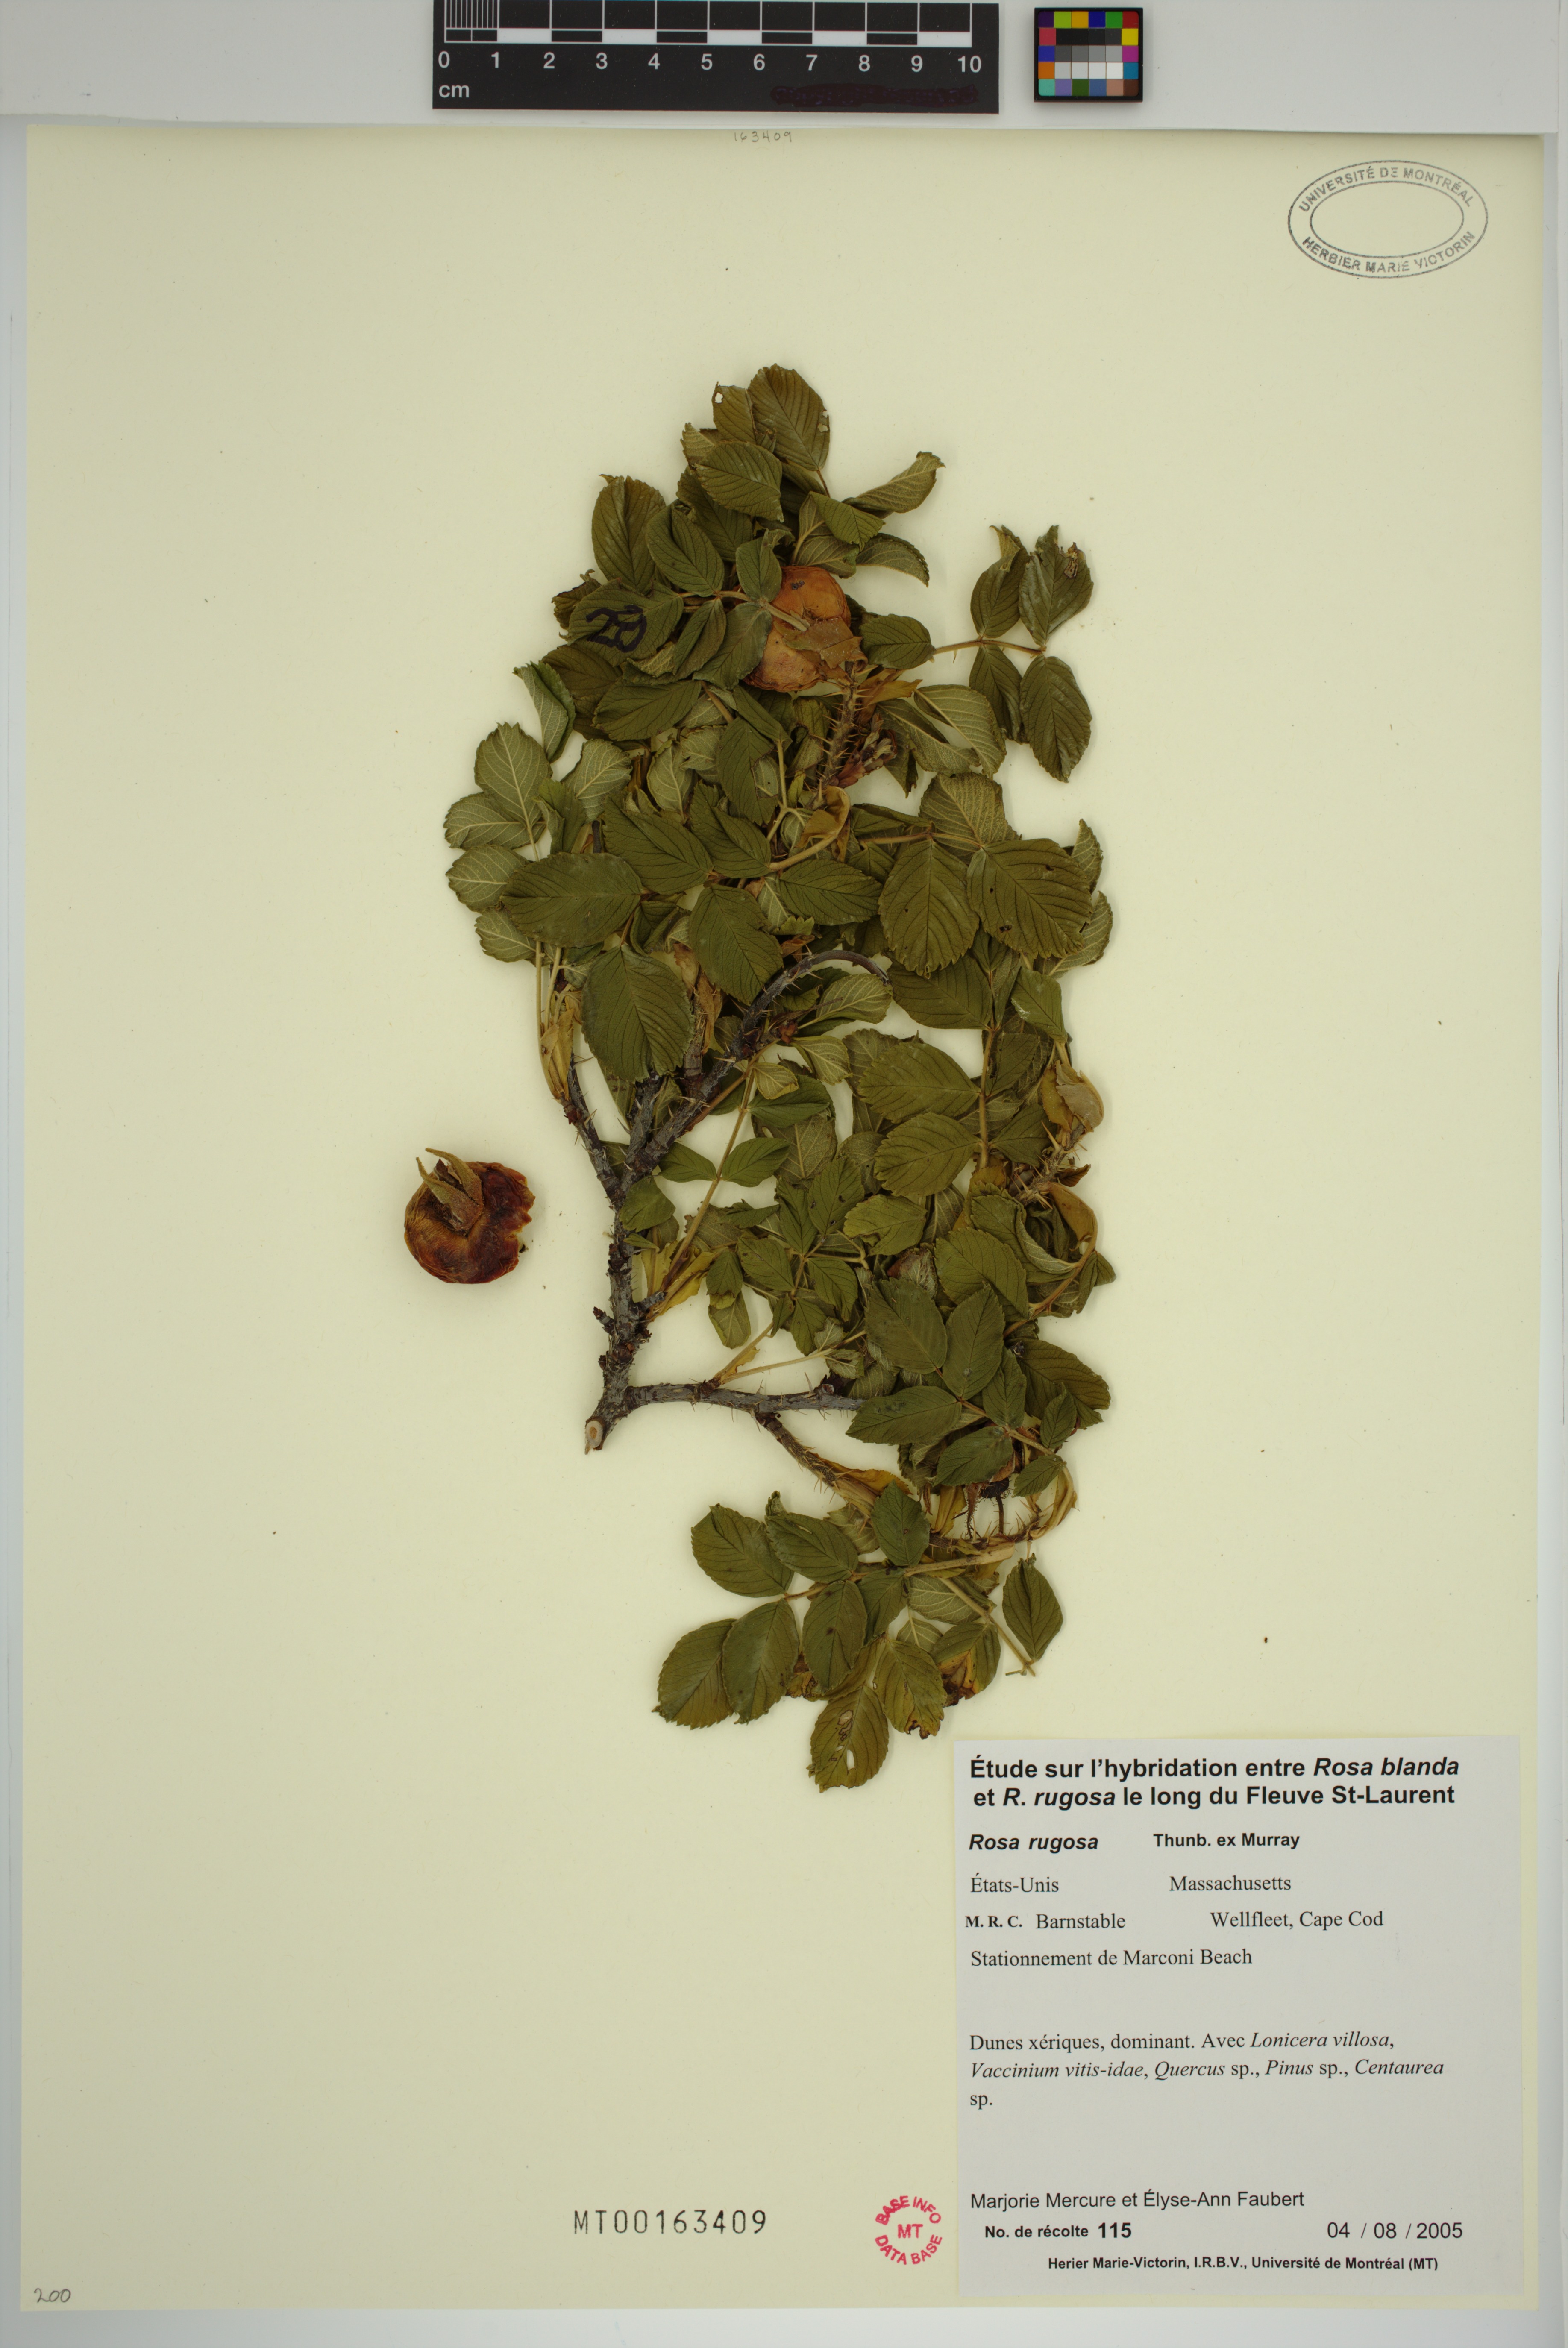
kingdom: Plantae
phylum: Tracheophyta
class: Magnoliopsida
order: Rosales
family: Rosaceae
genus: Rosa
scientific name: Rosa rugosa
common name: Japanese rose
